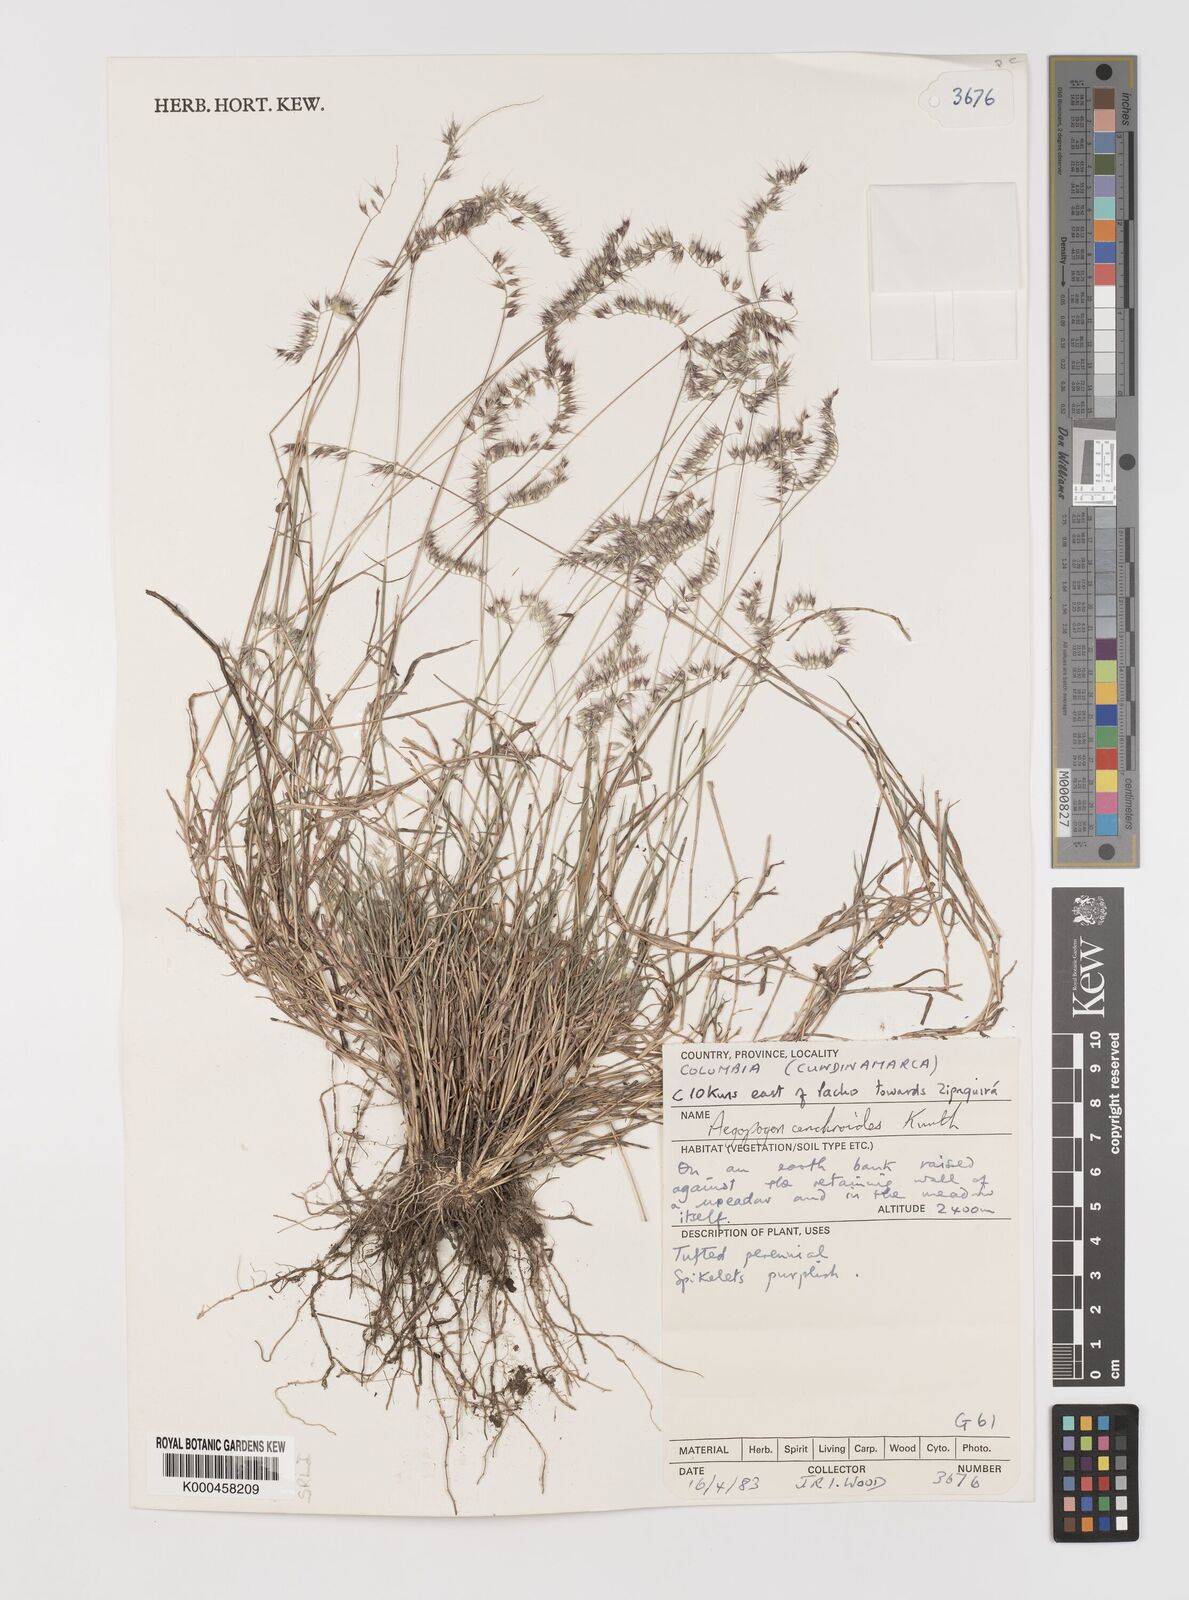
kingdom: Plantae
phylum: Tracheophyta
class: Liliopsida
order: Poales
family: Poaceae
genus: Muhlenbergia
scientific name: Muhlenbergia
